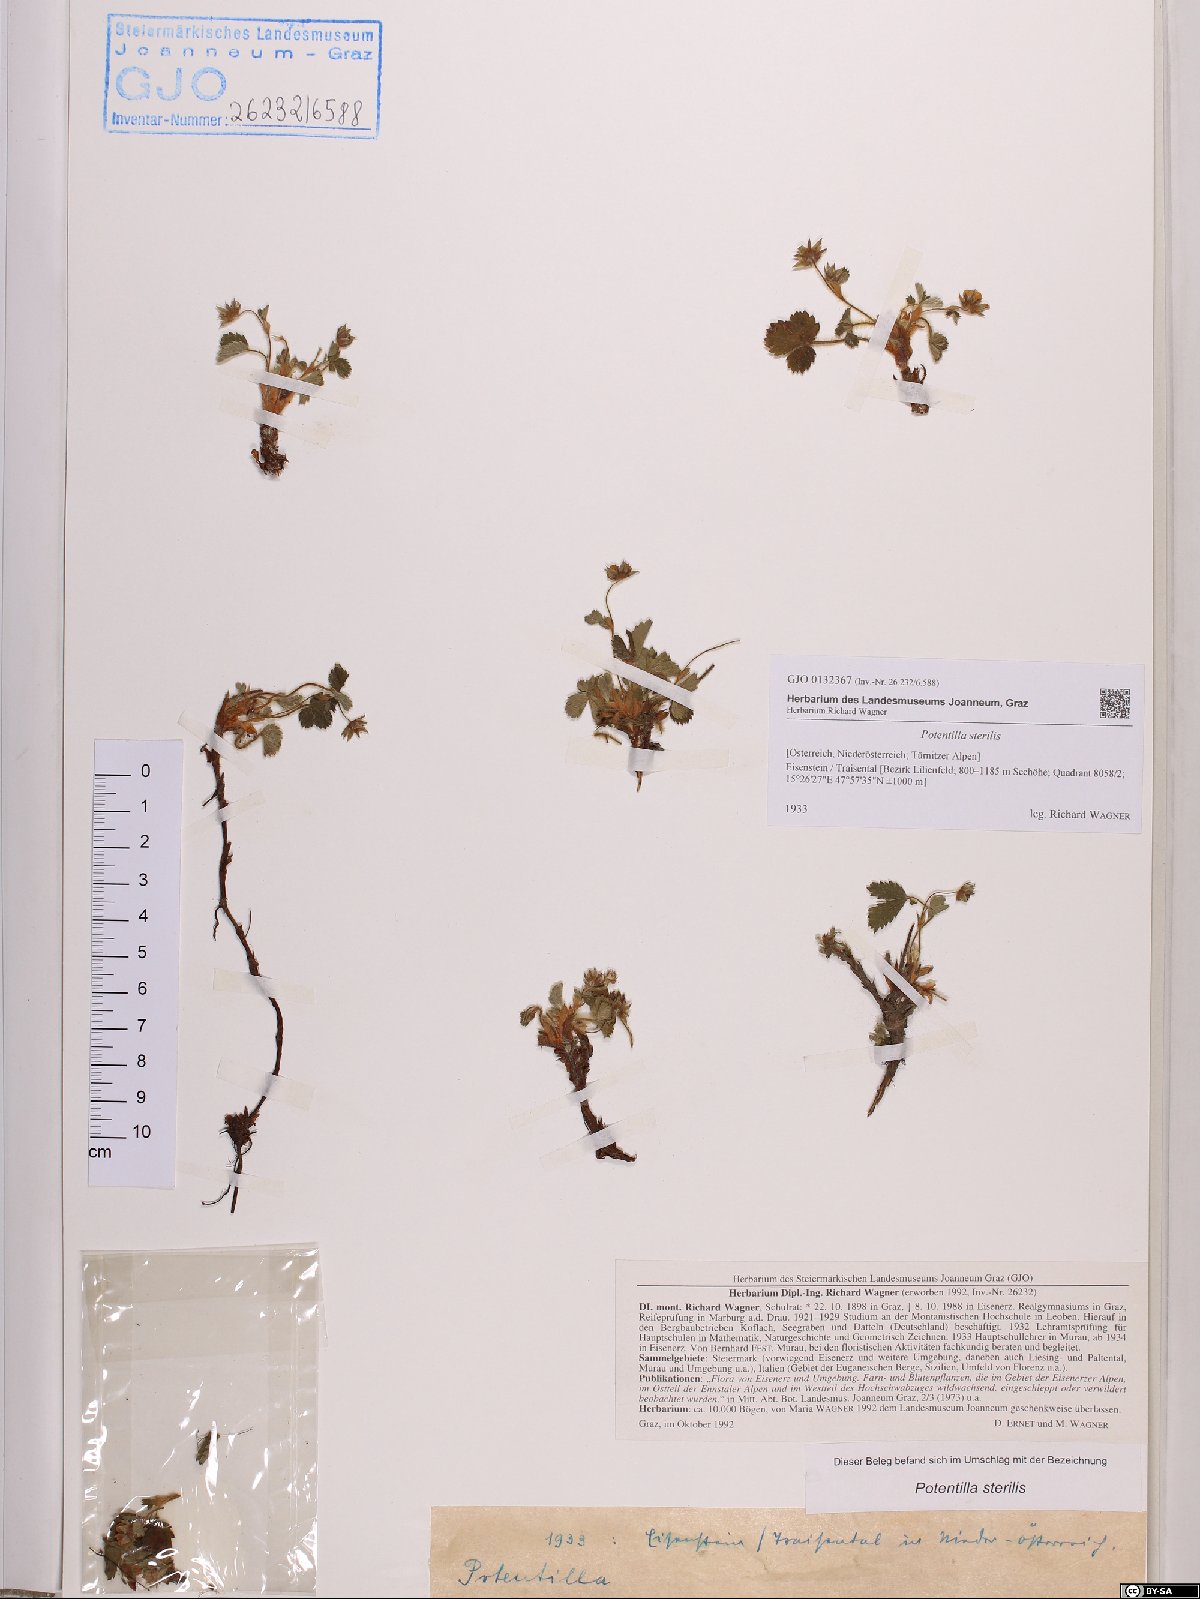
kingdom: Plantae
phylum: Tracheophyta
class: Magnoliopsida
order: Rosales
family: Rosaceae
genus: Potentilla
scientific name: Potentilla sterilis
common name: Barren strawberry
